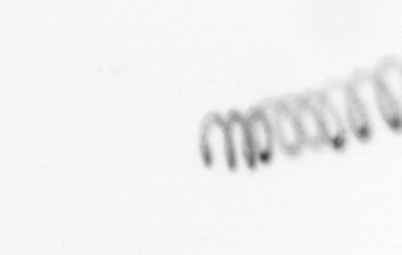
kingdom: Chromista
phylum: Ochrophyta
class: Bacillariophyceae
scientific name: Bacillariophyceae
